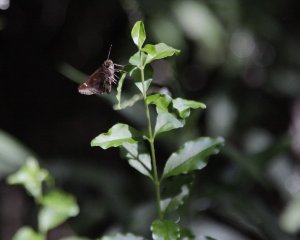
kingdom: Animalia
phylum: Arthropoda
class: Insecta
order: Lepidoptera
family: Hesperiidae
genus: Lerema
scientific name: Lerema accius
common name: Clouded Skipper
